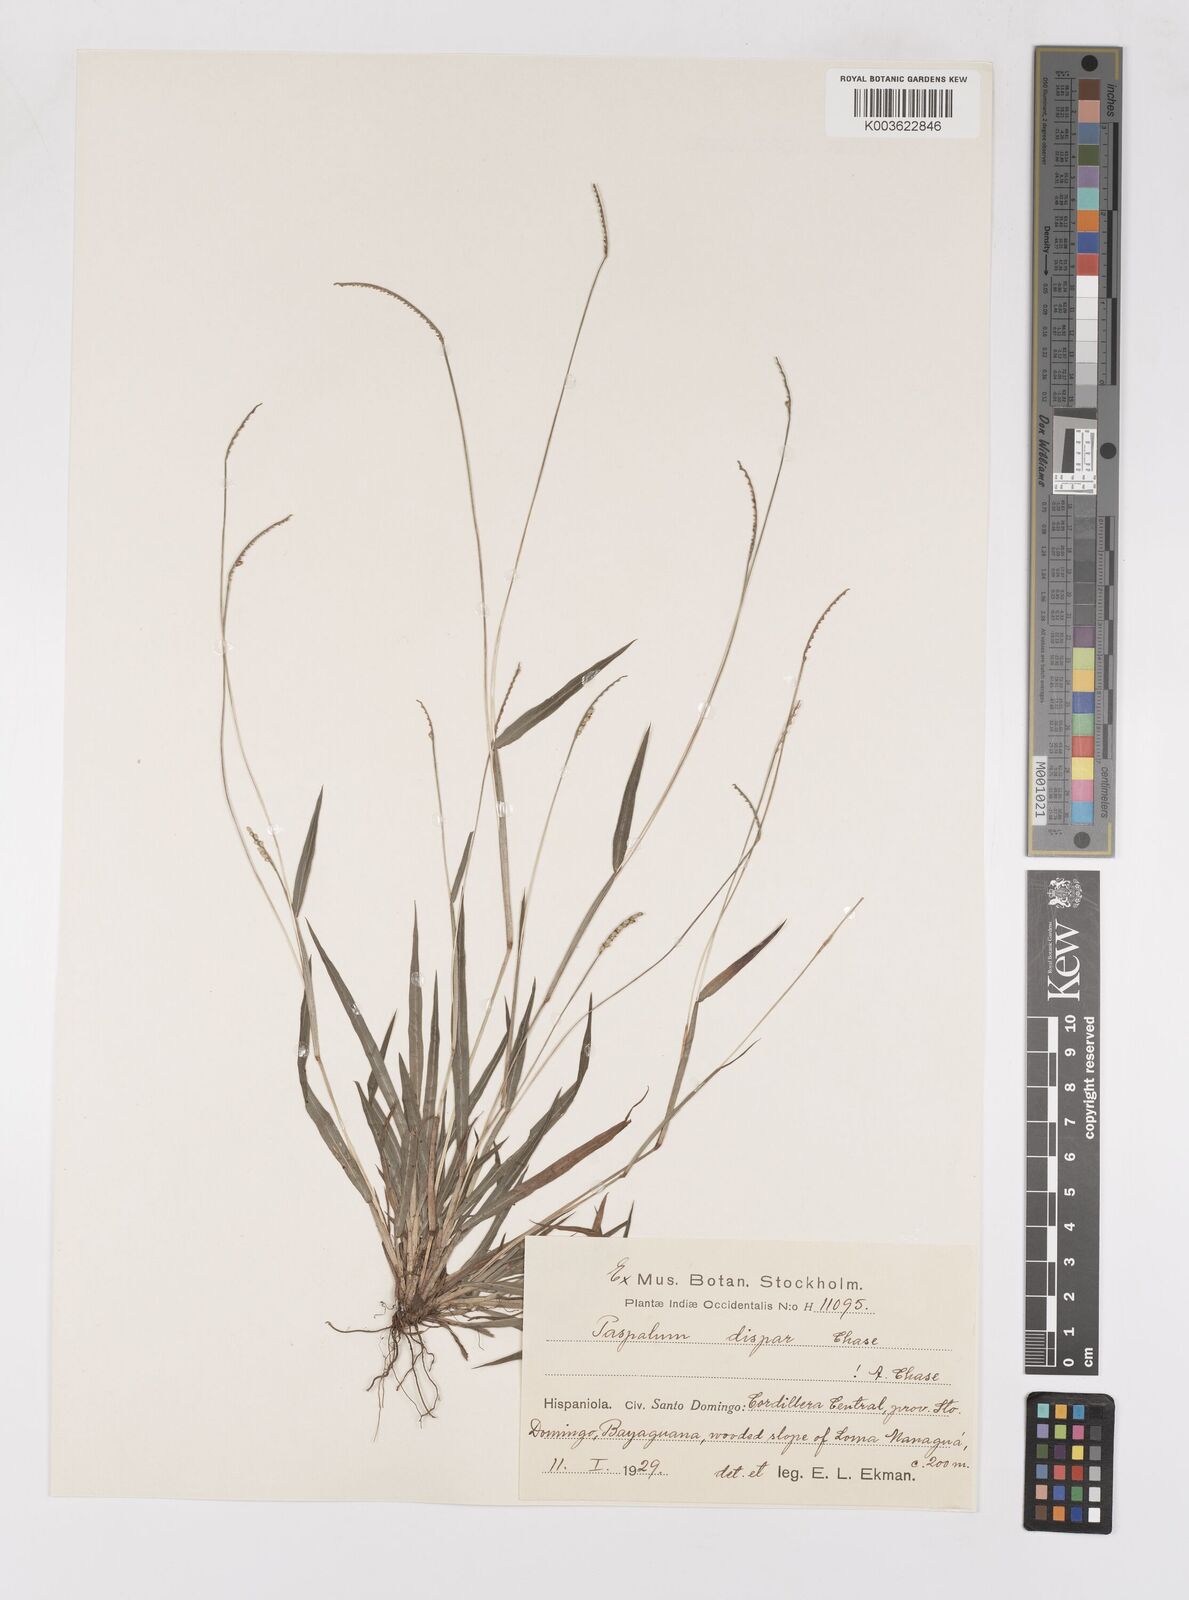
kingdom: Plantae
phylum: Tracheophyta
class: Liliopsida
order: Poales
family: Poaceae
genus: Paspalum
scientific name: Paspalum dispar
